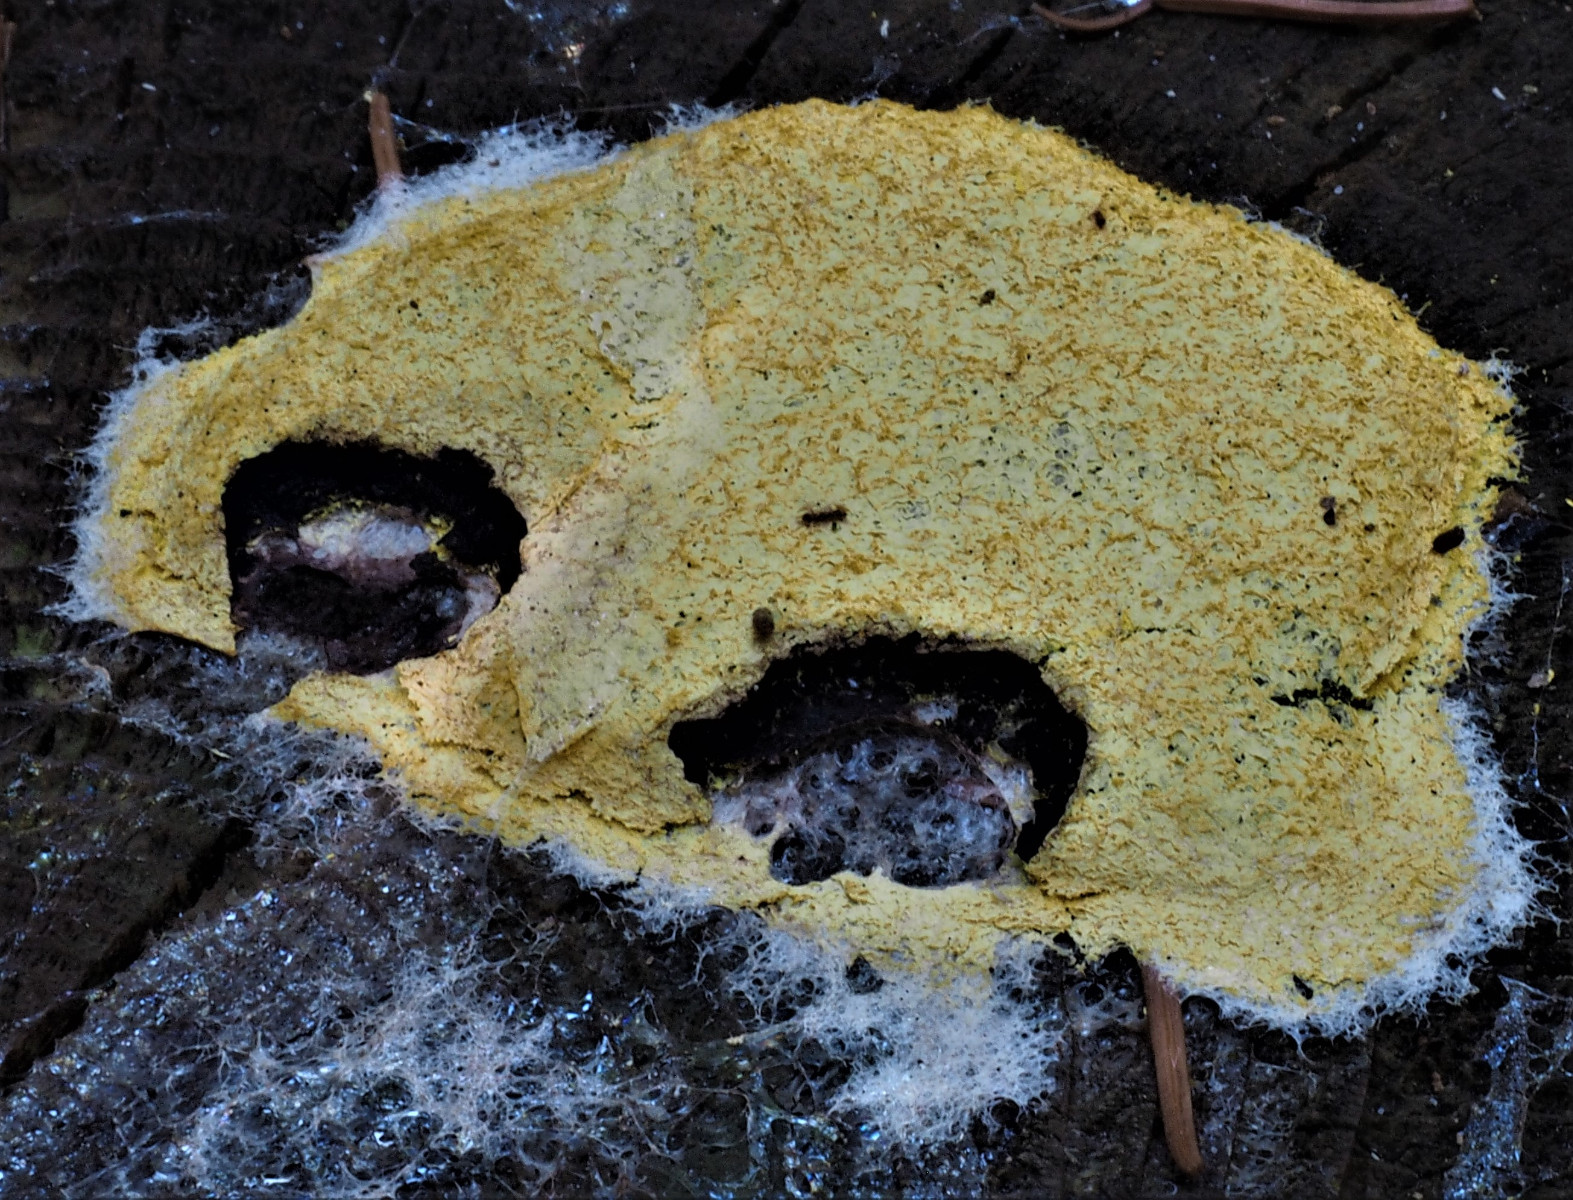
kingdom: Protozoa
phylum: Mycetozoa
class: Myxomycetes
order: Physarales
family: Physaraceae
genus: Fuligo
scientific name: Fuligo septica
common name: gul troldsmør
